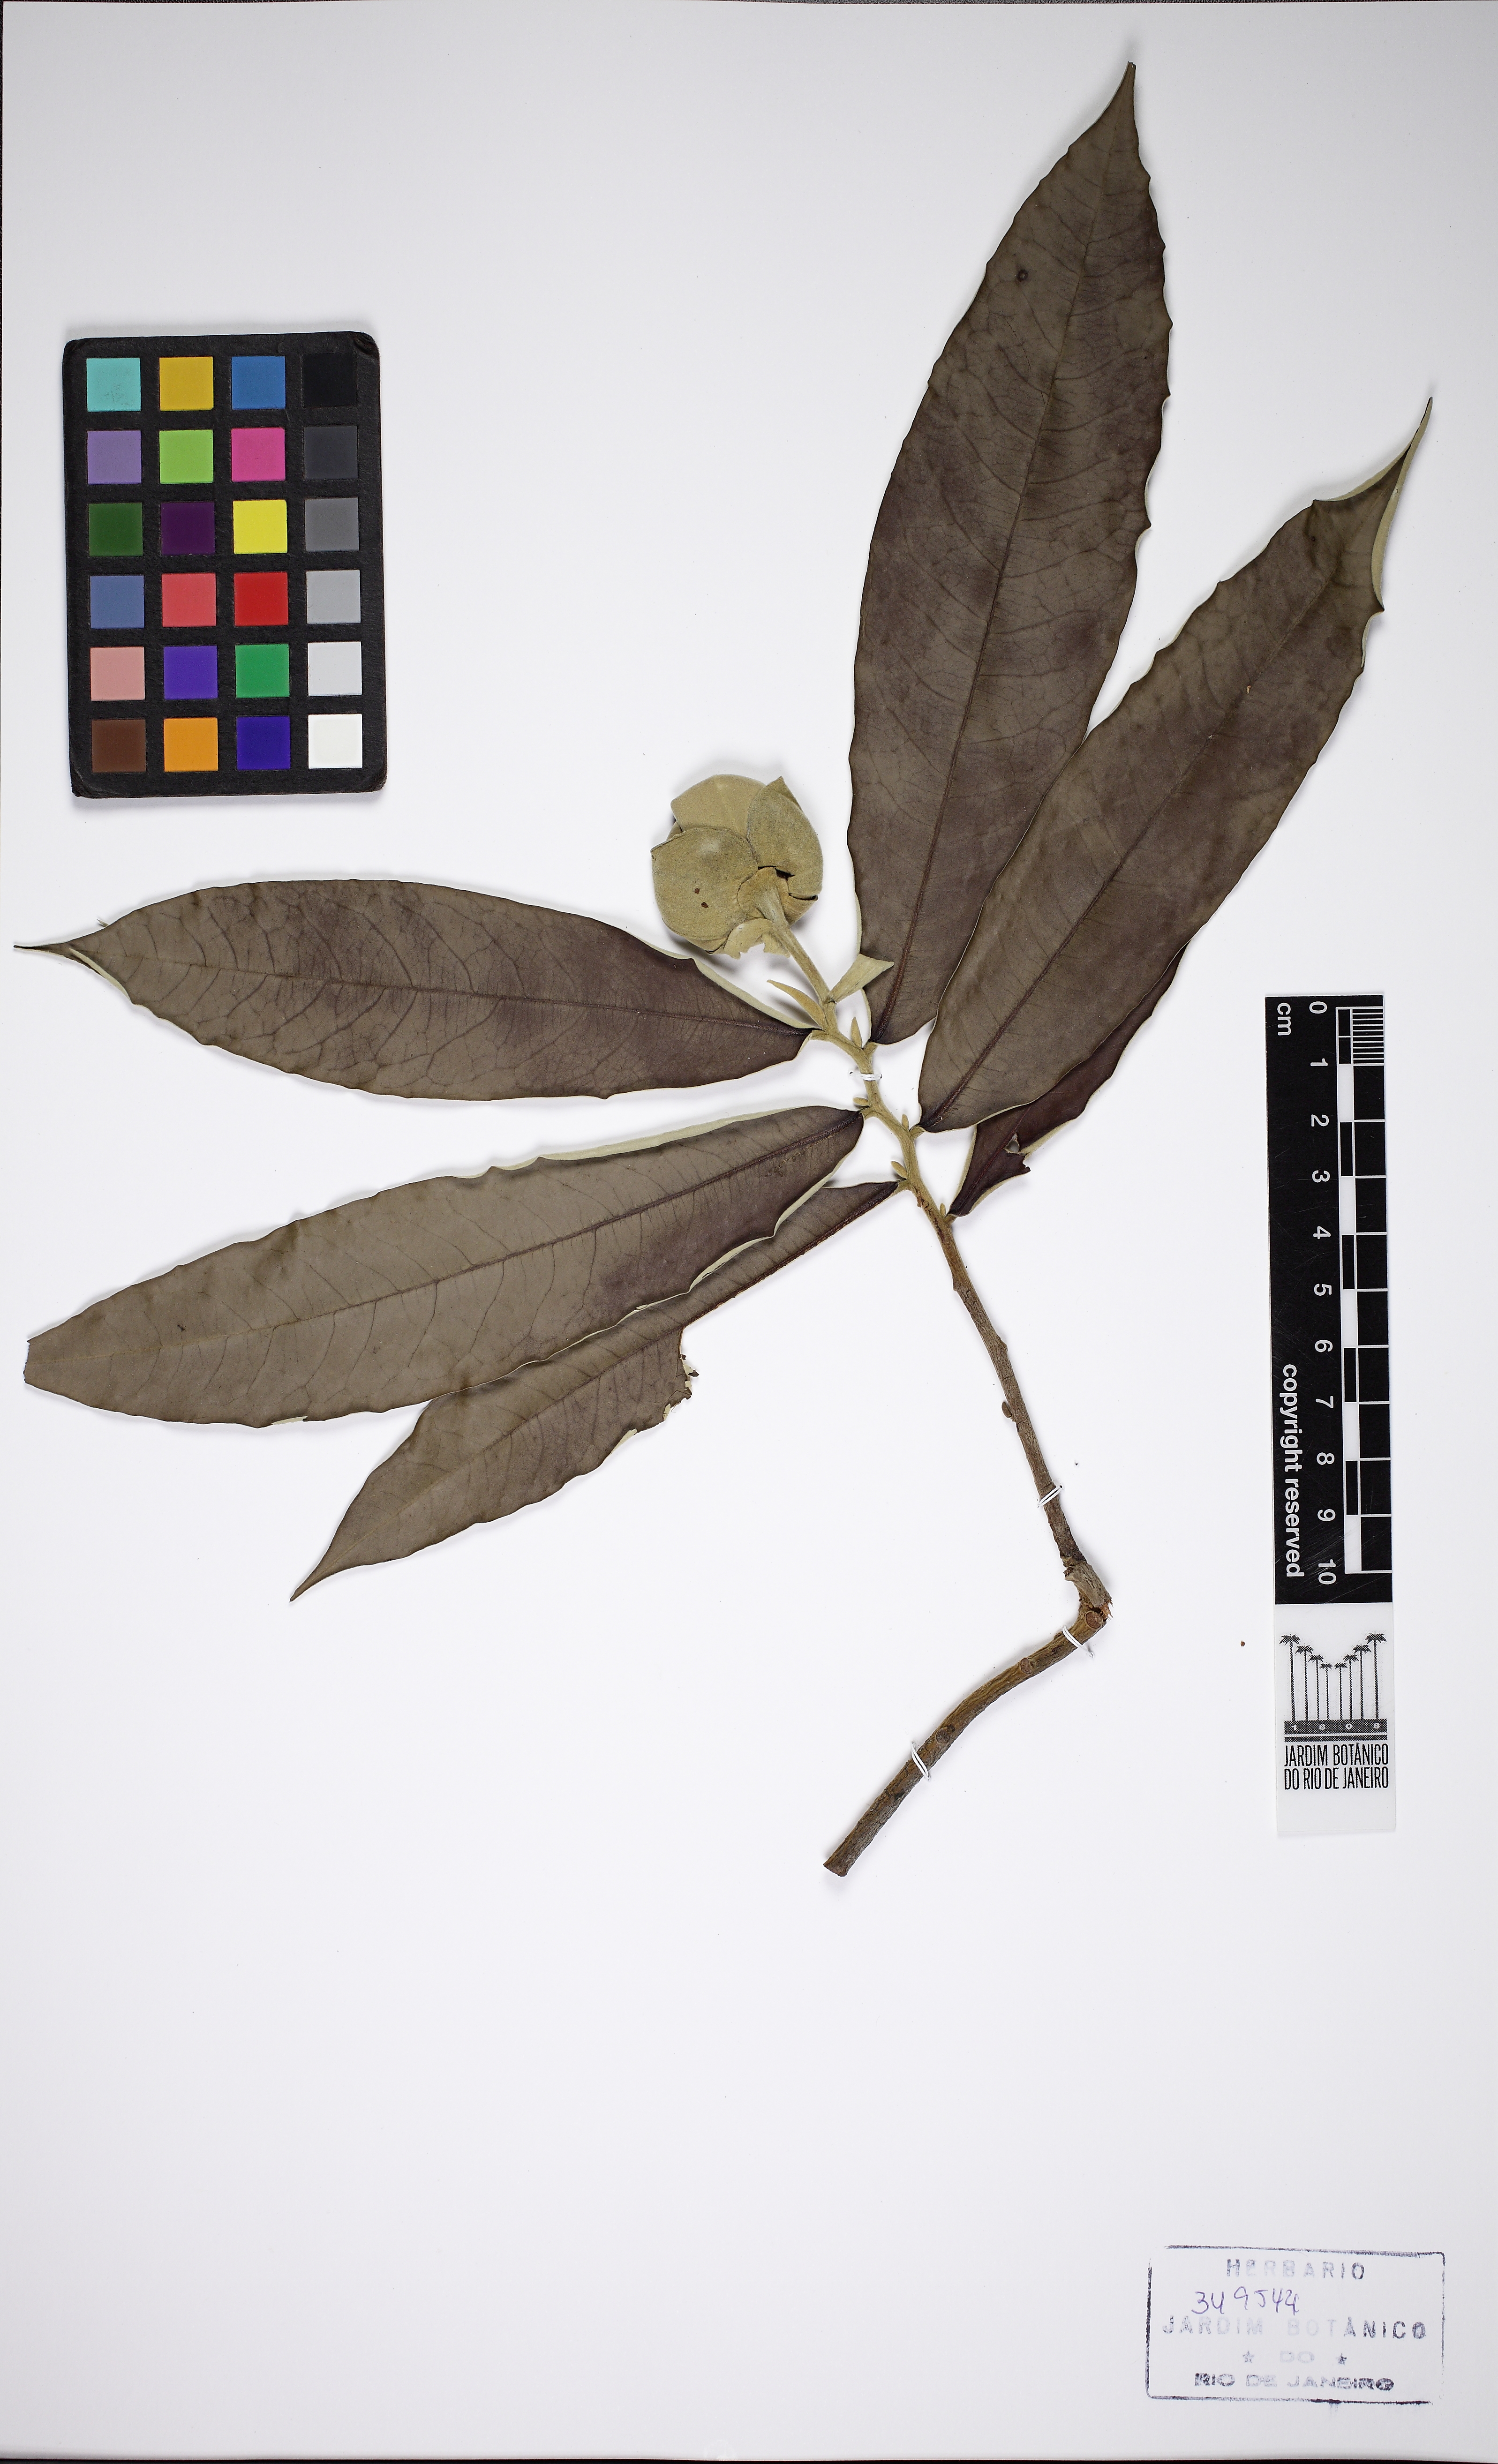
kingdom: Plantae
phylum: Tracheophyta
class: Magnoliopsida
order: Magnoliales
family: Annonaceae
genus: Duguetia
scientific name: Duguetia uniflora
